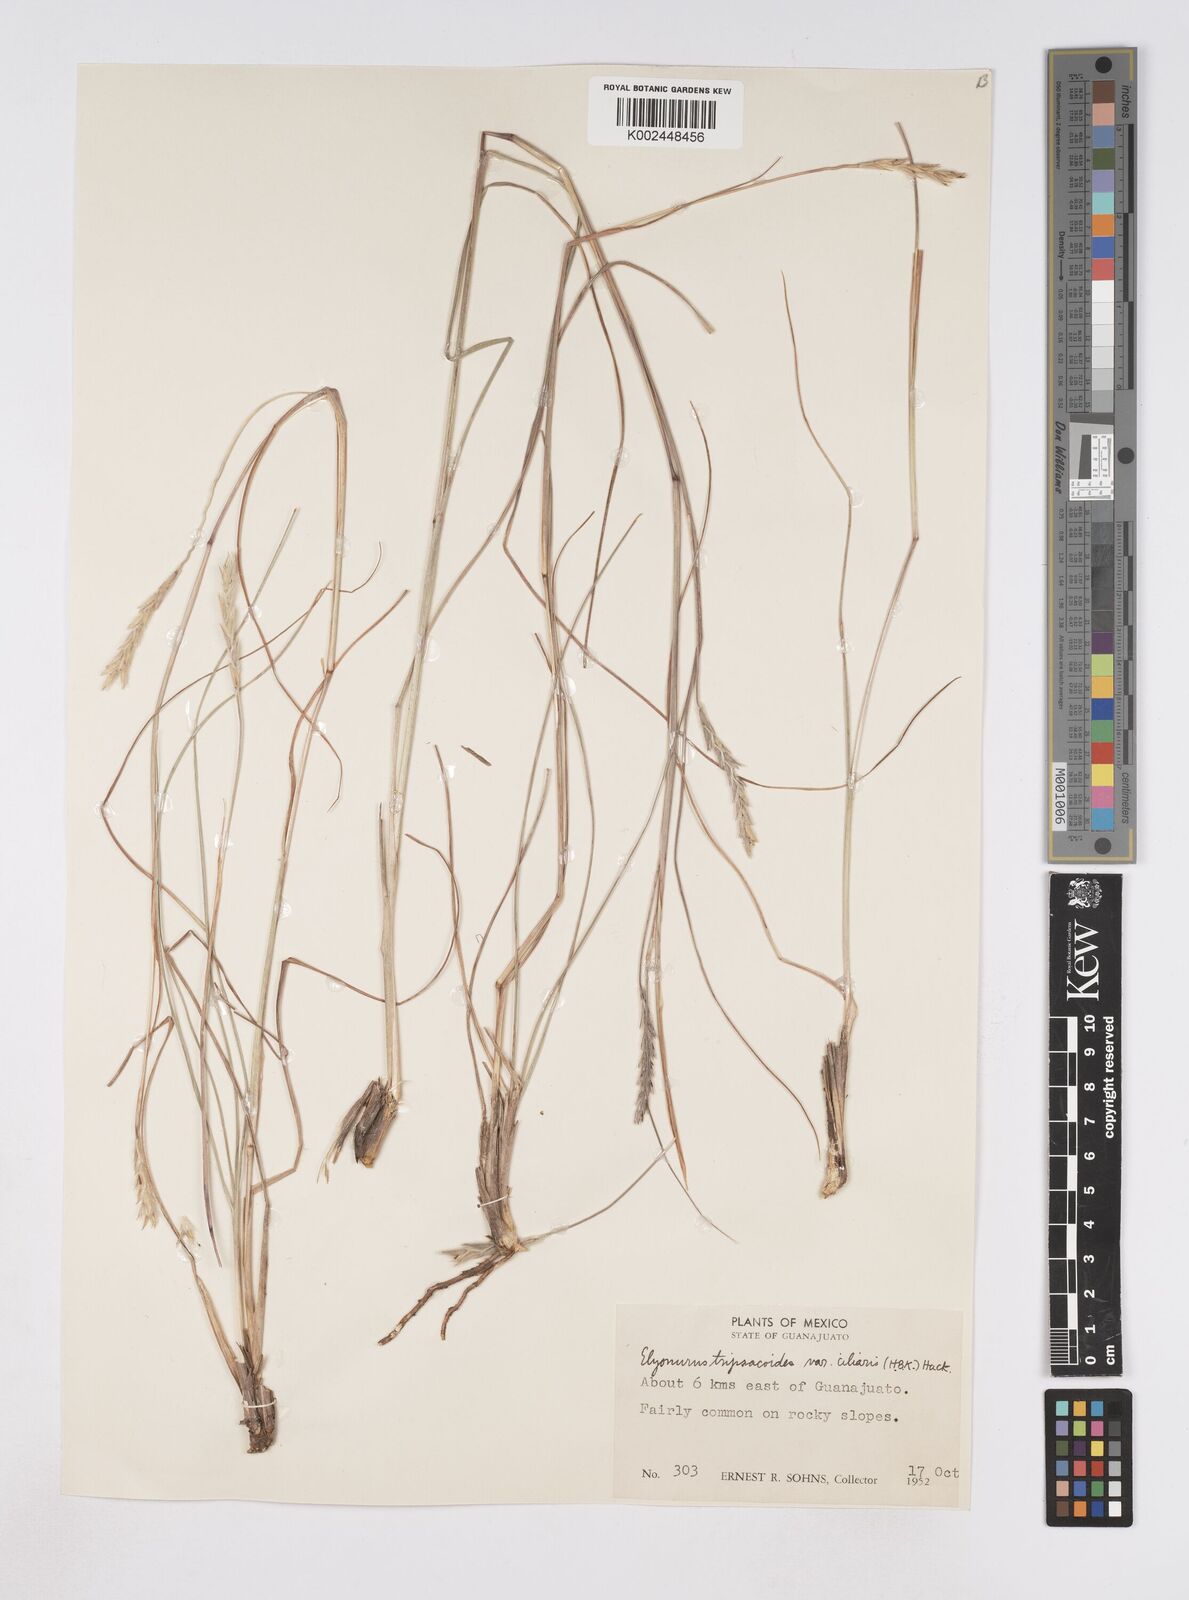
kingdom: Plantae
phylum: Tracheophyta
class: Liliopsida
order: Poales
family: Poaceae
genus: Elionurus
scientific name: Elionurus ciliaris
